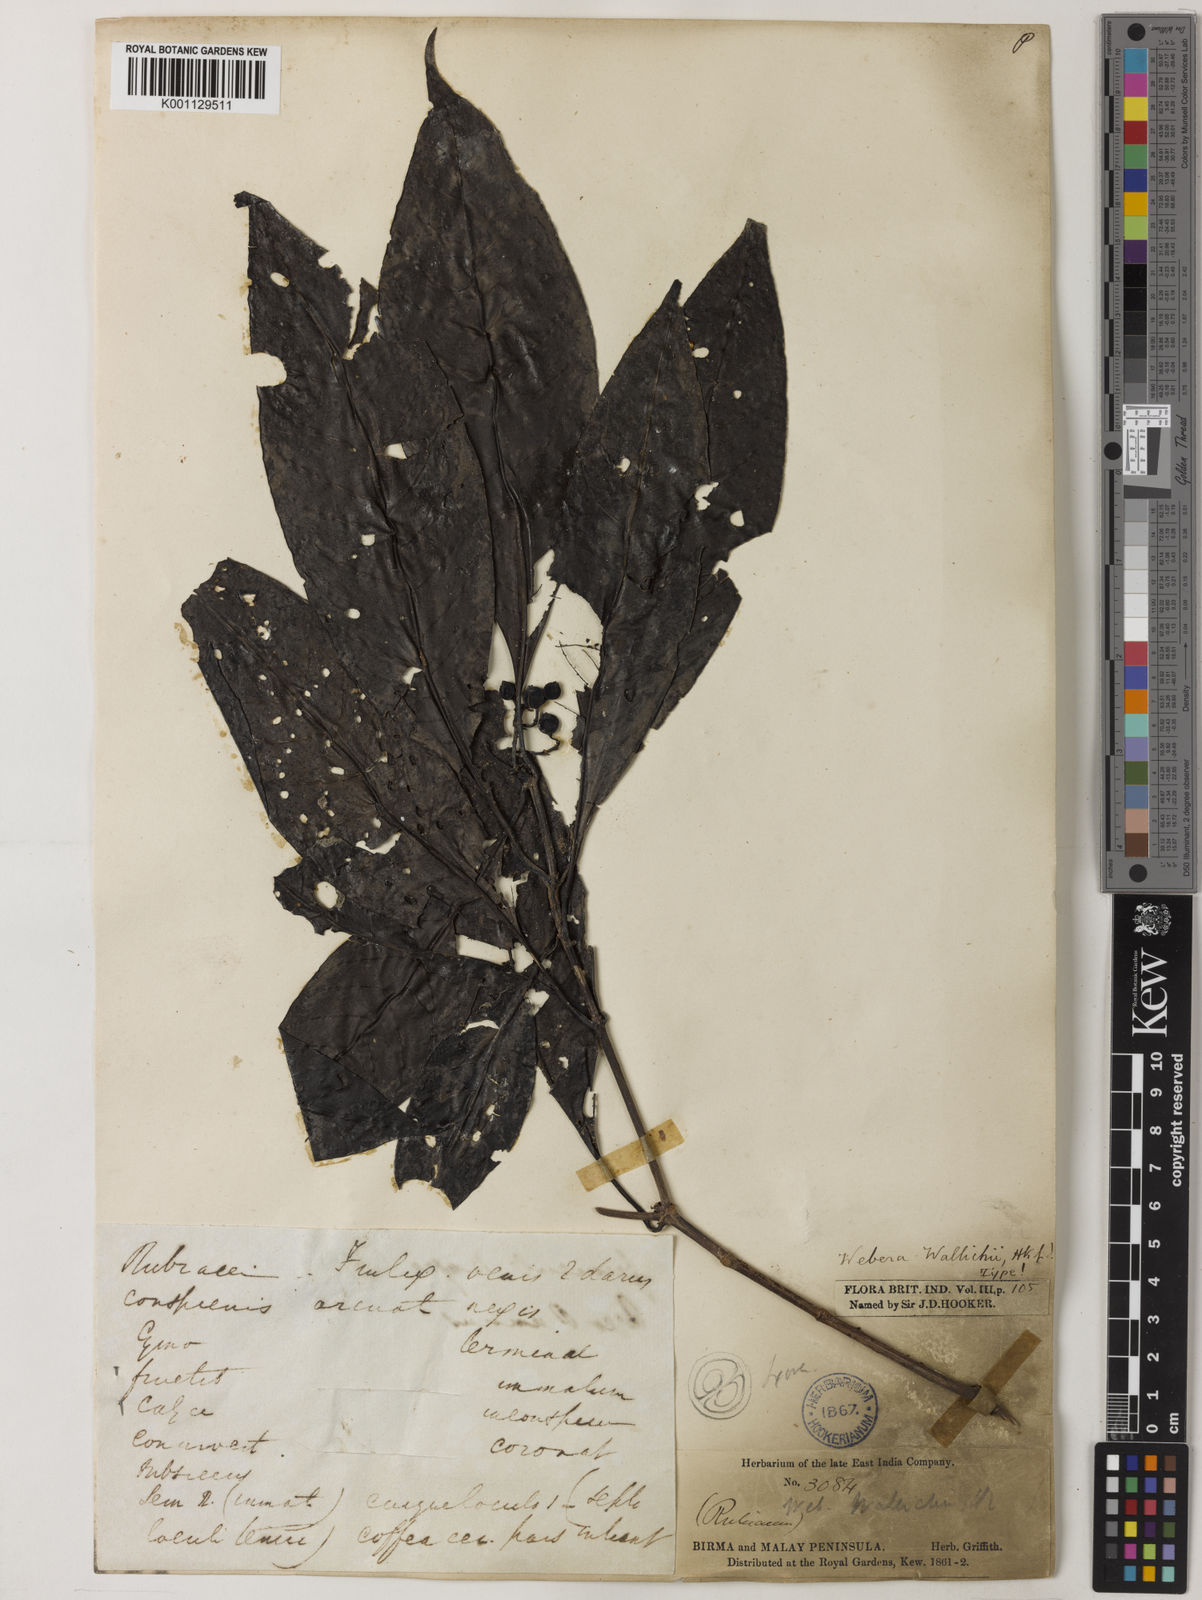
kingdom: Plantae
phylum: Tracheophyta
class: Magnoliopsida
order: Gentianales
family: Rubiaceae
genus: Tarenna
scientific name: Tarenna wallichii
